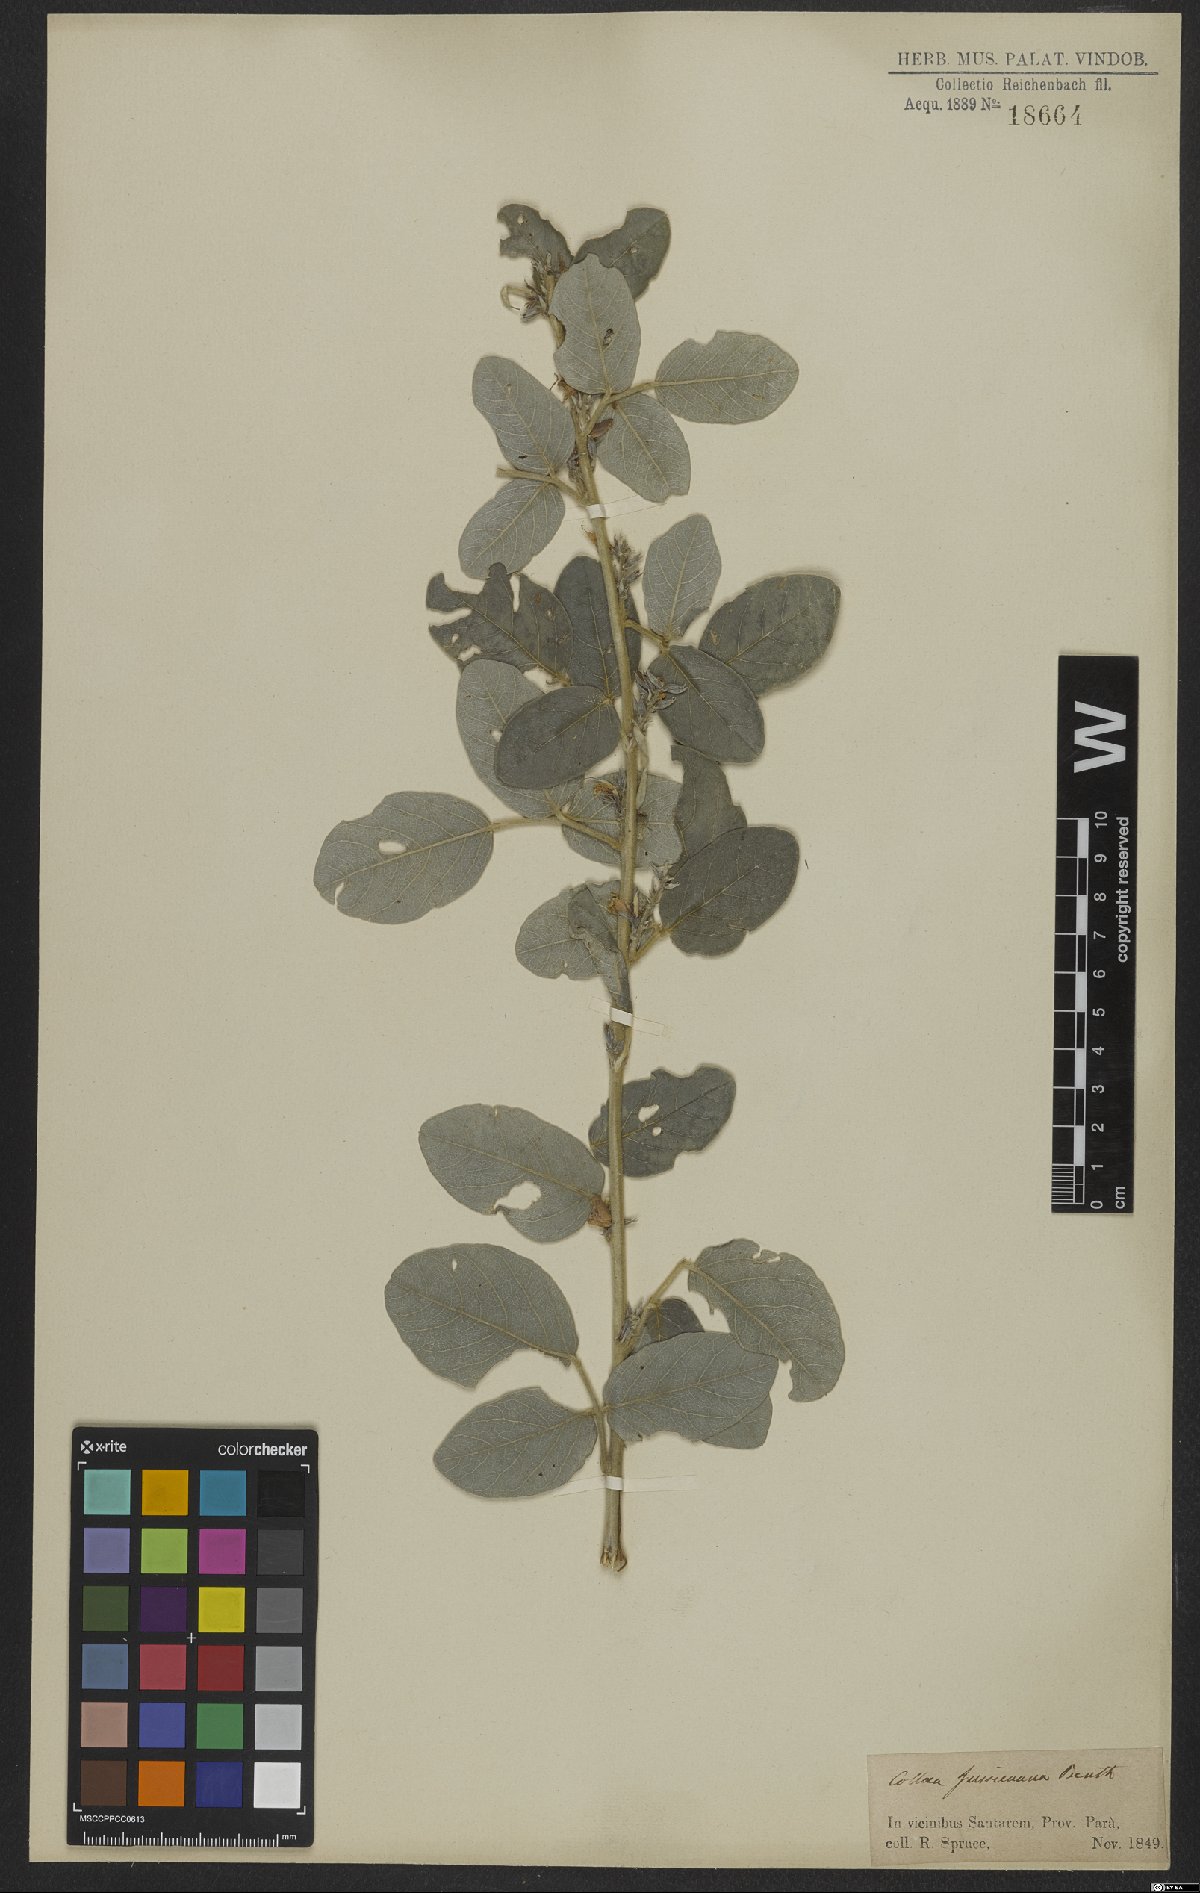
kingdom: Plantae
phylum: Tracheophyta
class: Magnoliopsida
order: Fabales
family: Fabaceae
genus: Galactia
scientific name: Galactia jussiaeana
